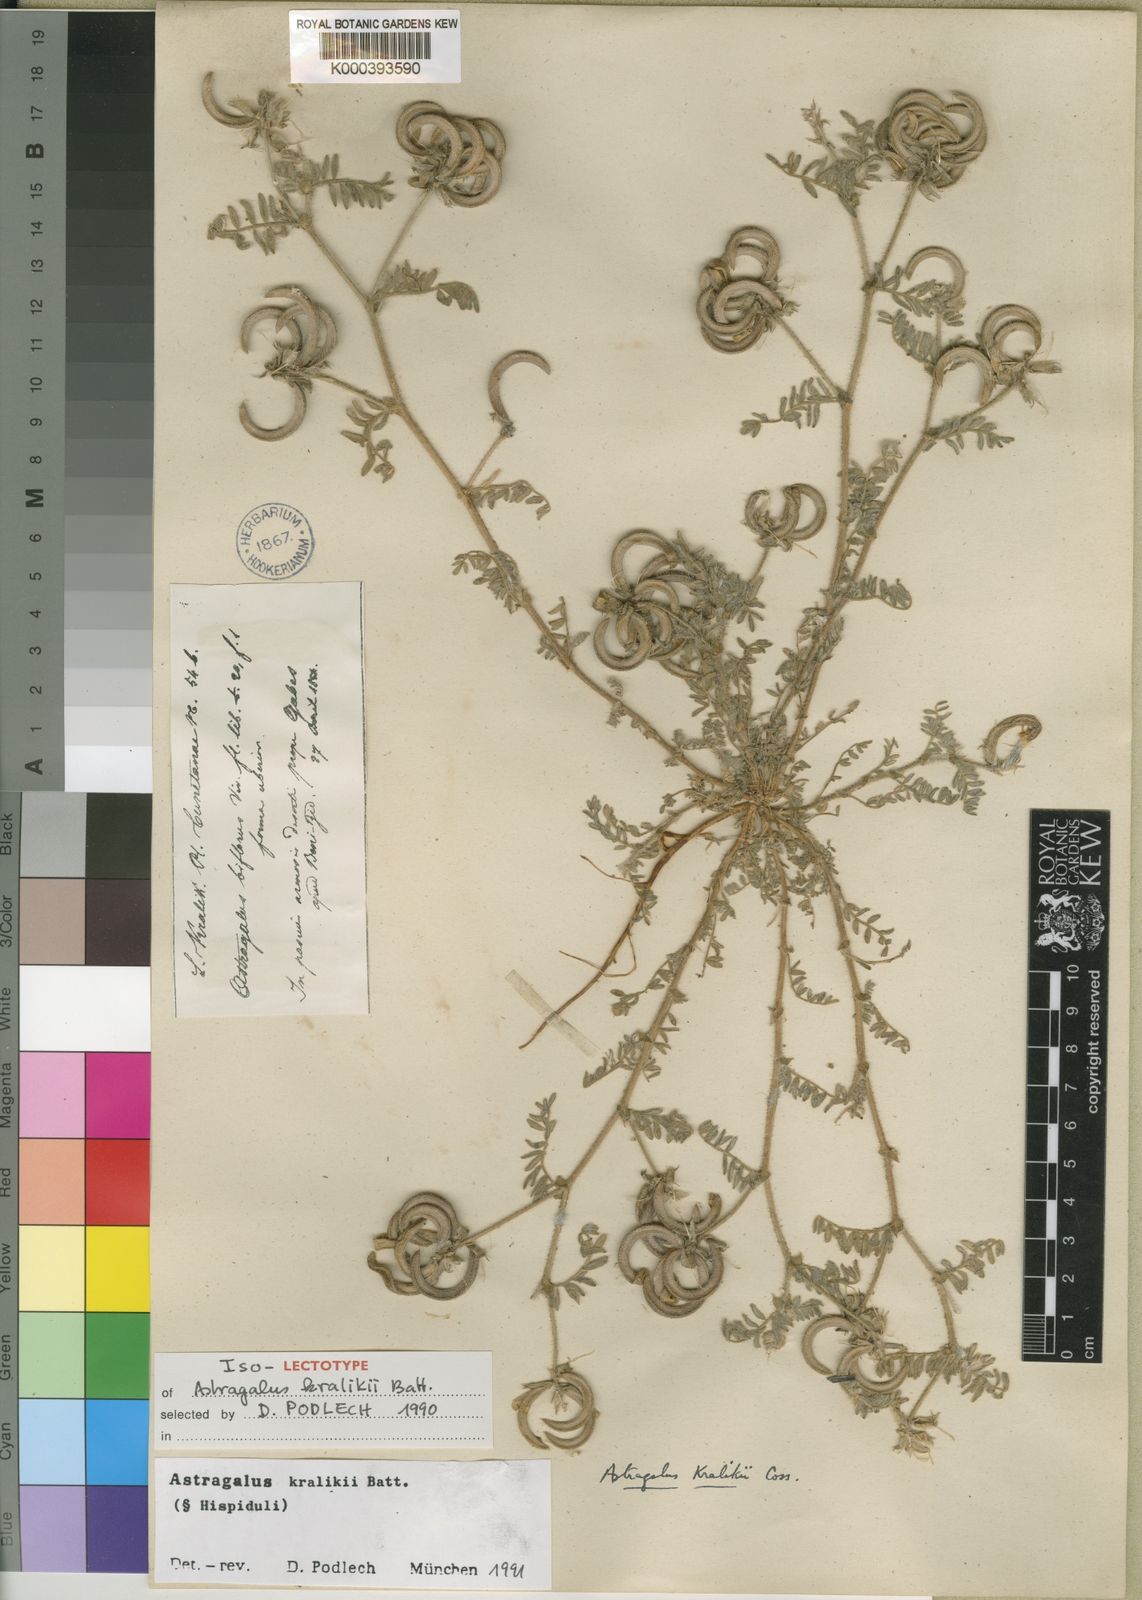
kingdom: Plantae
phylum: Tracheophyta
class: Magnoliopsida
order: Fabales
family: Fabaceae
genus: Astragalus
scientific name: Astragalus
